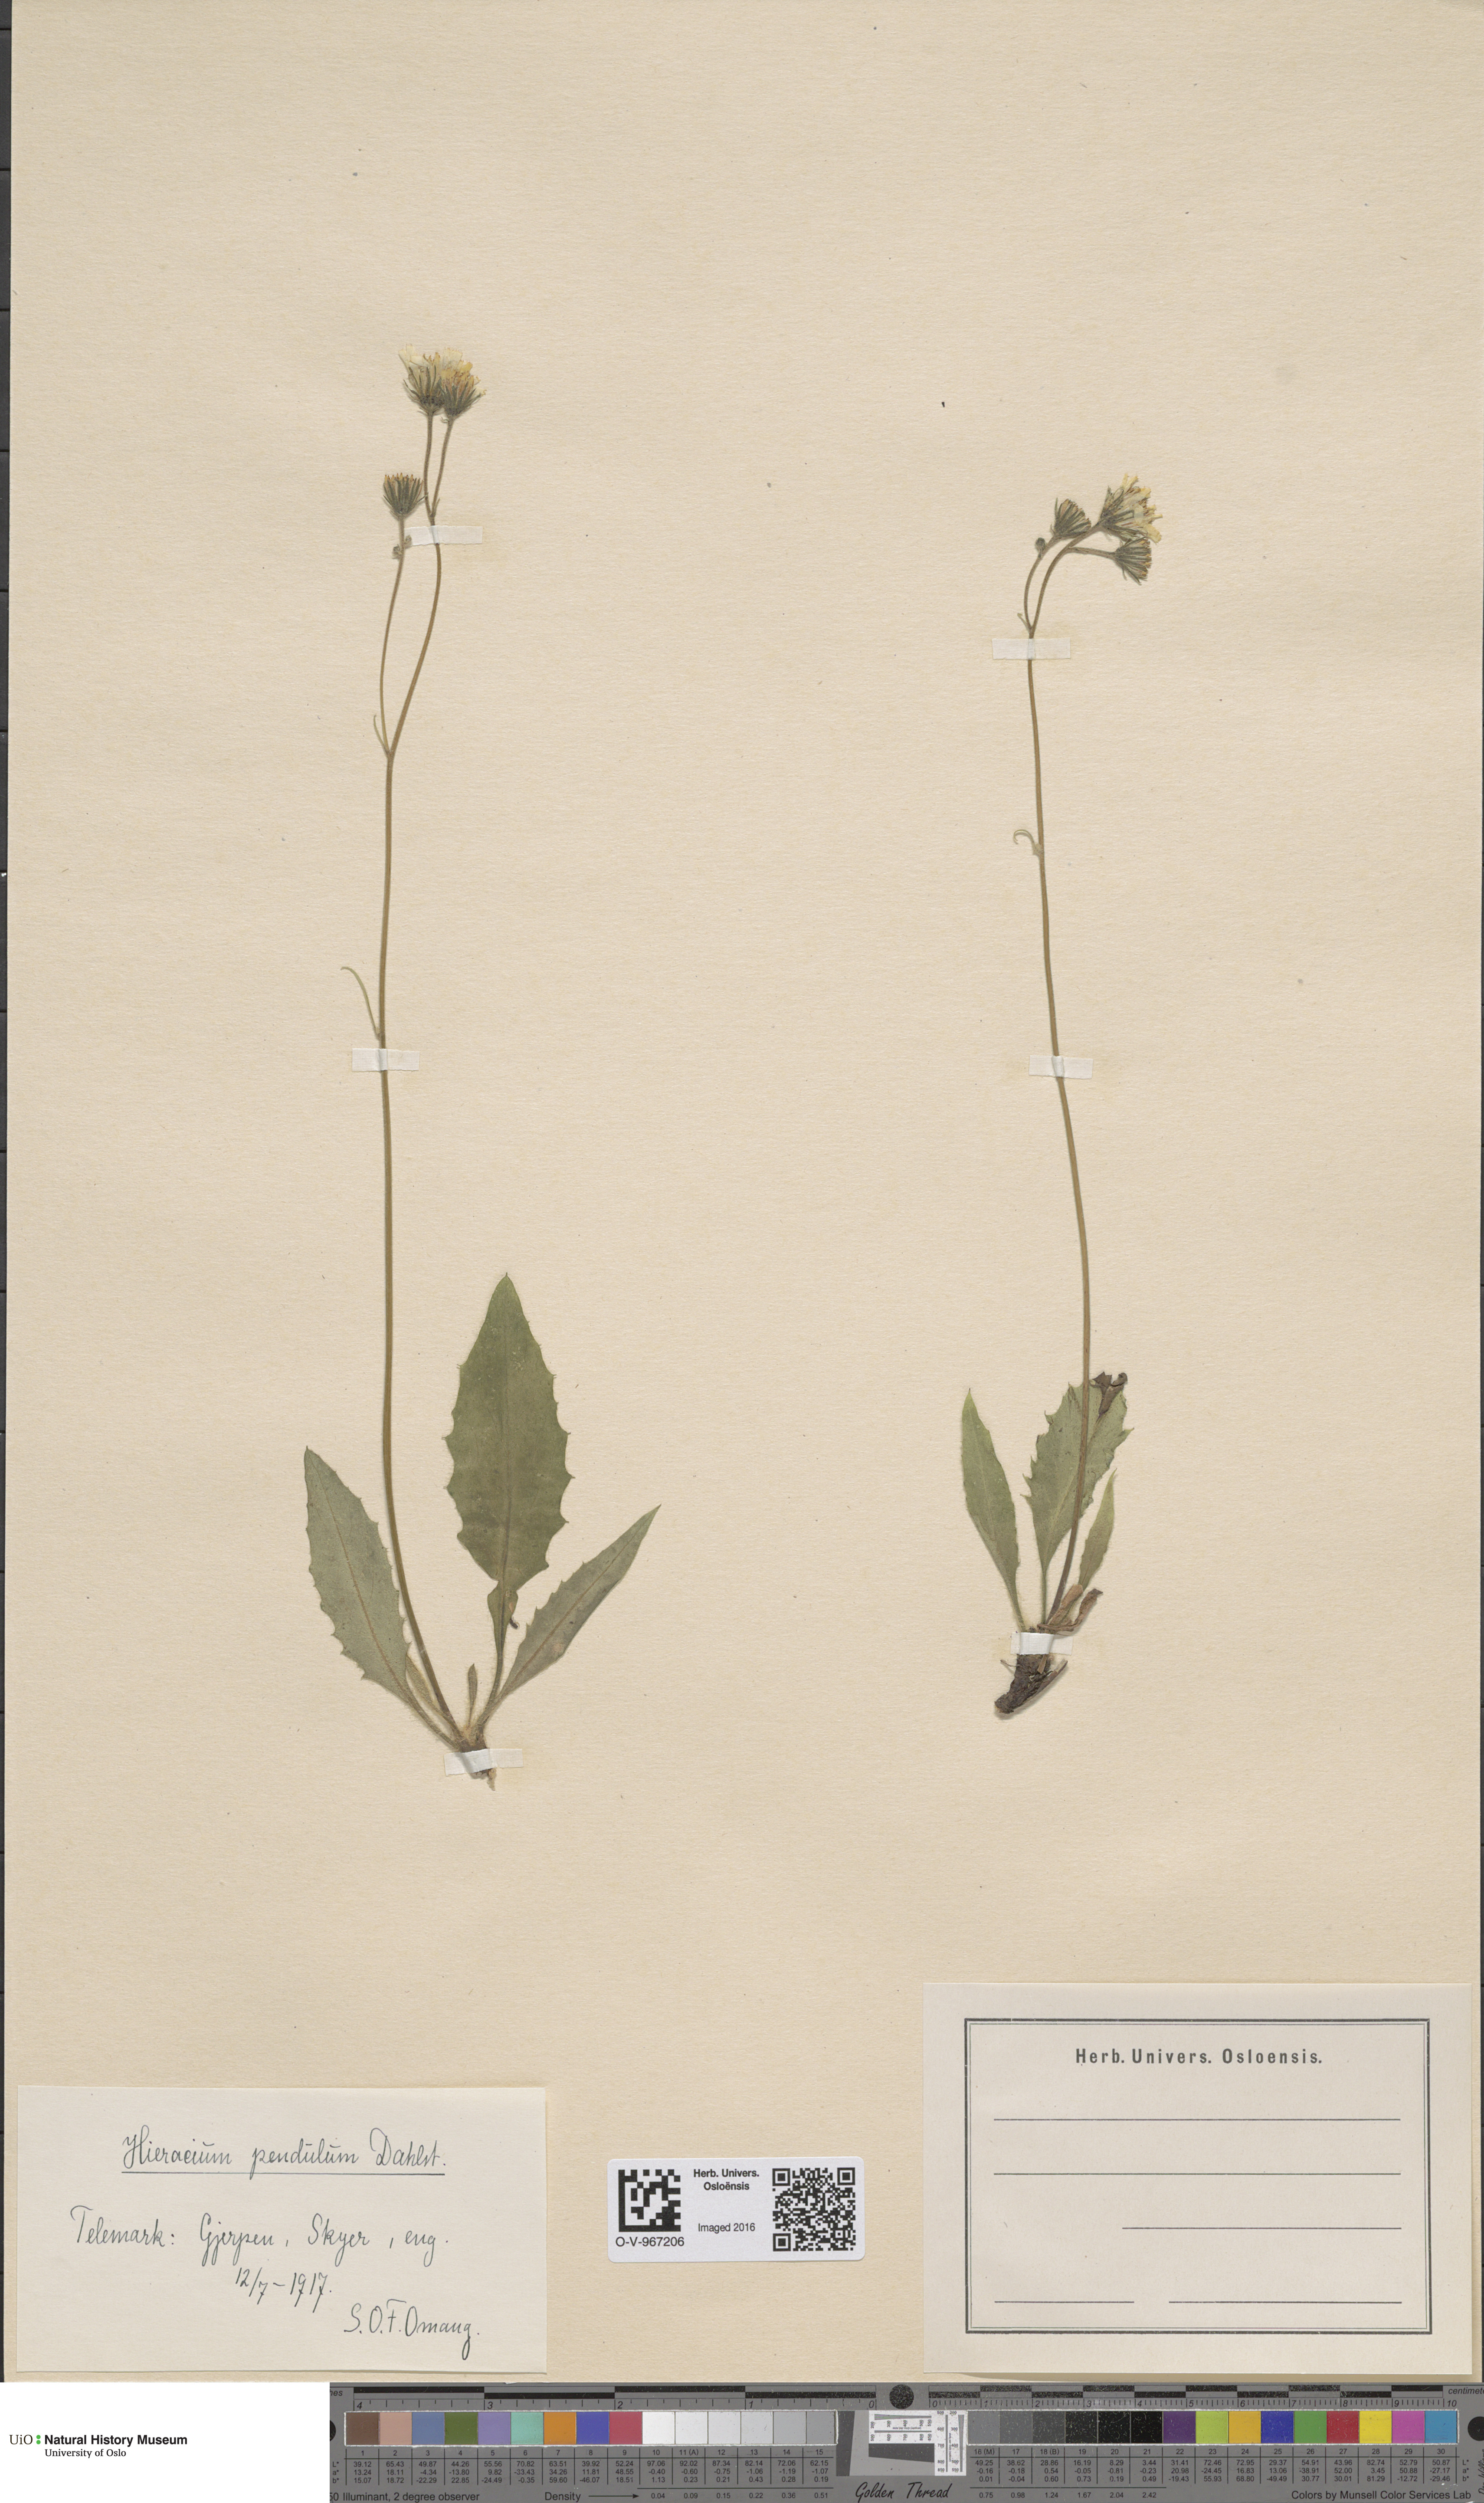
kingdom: Plantae
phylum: Tracheophyta
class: Magnoliopsida
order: Asterales
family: Asteraceae
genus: Hieracium
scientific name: Hieracium pendulum
